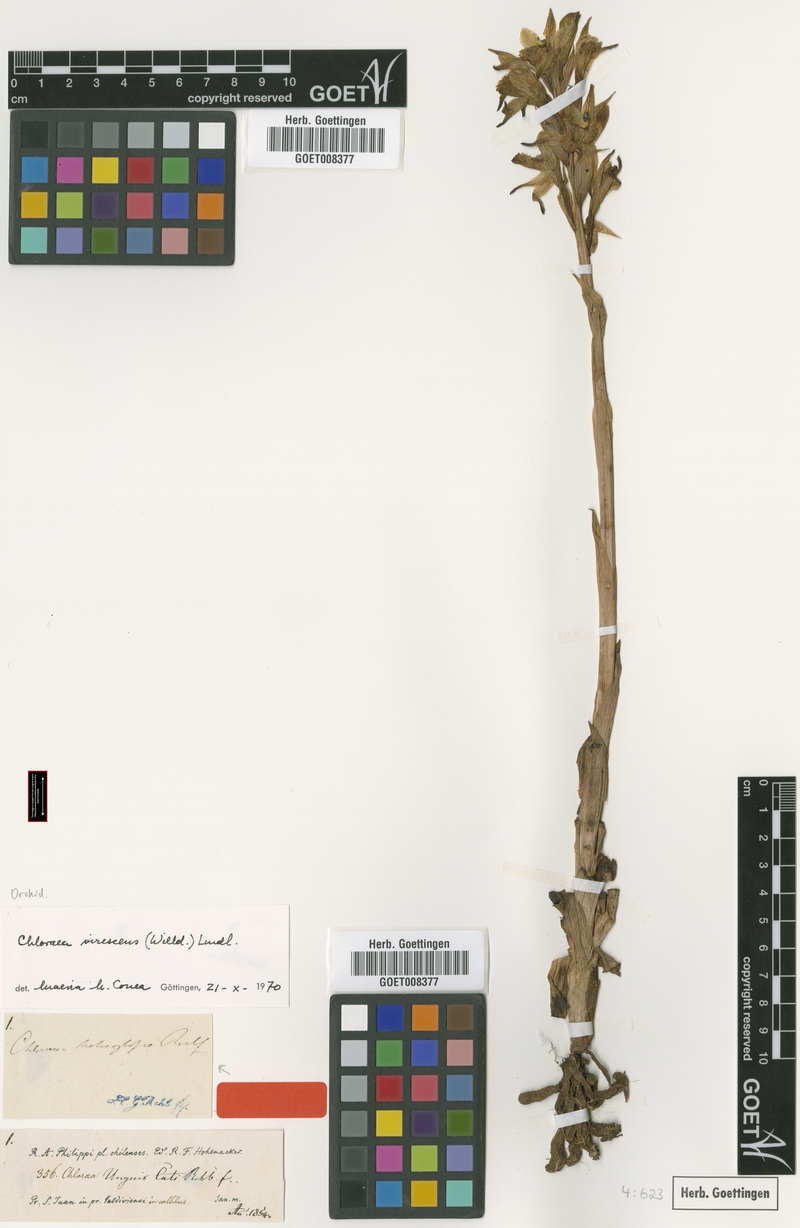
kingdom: Plantae
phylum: Tracheophyta
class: Liliopsida
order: Asparagales
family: Orchidaceae
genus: Chloraea
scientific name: Chloraea piquichen
